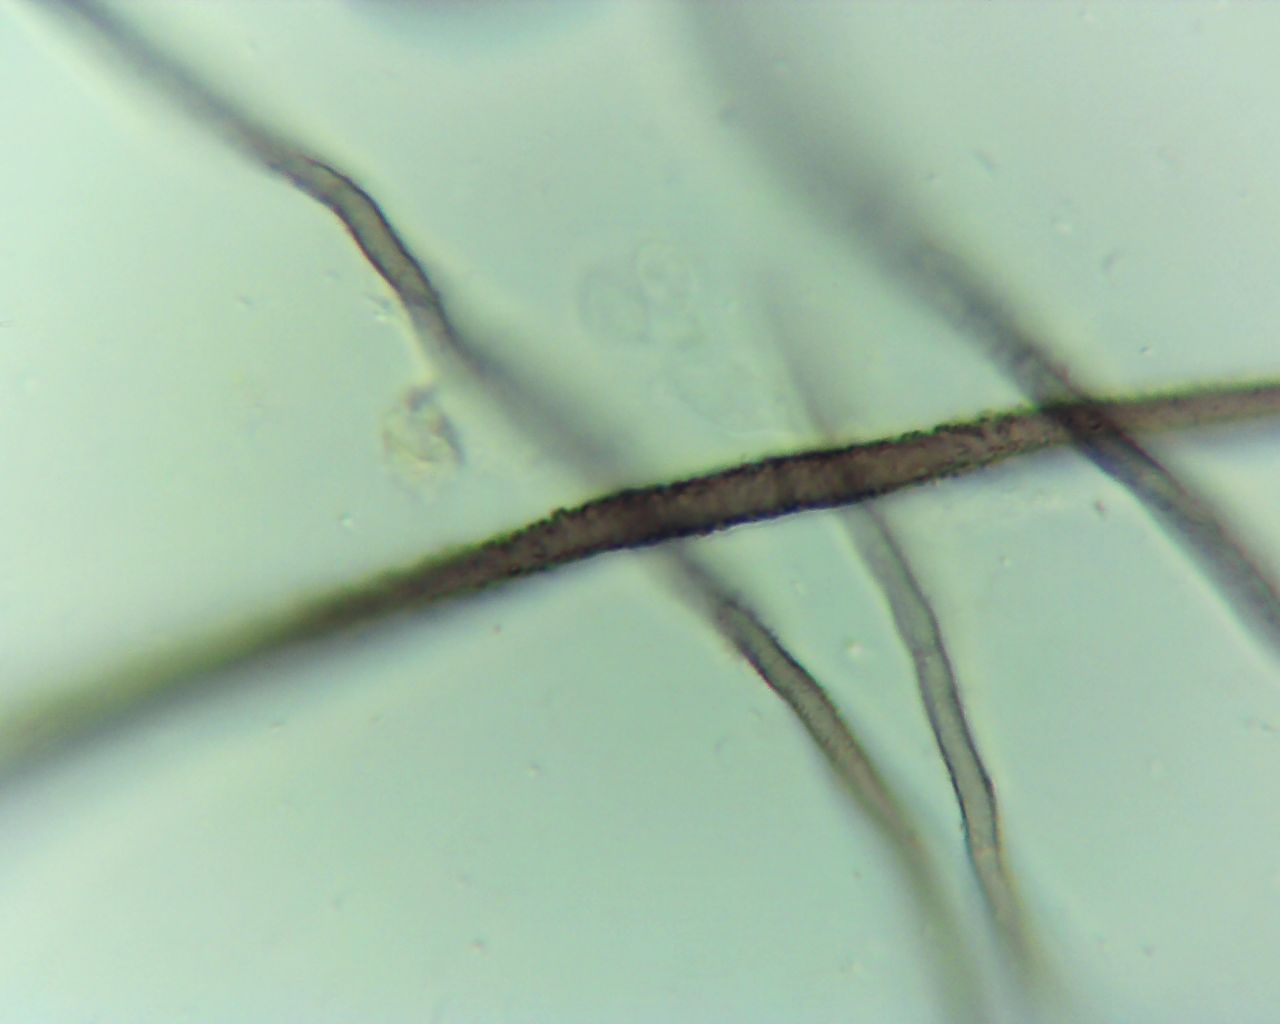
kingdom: Fungi
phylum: Ascomycota
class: Sordariomycetes
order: Sordariales
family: Chaetomiaceae
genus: Chaetomium
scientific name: Chaetomium
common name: søjlekerne
